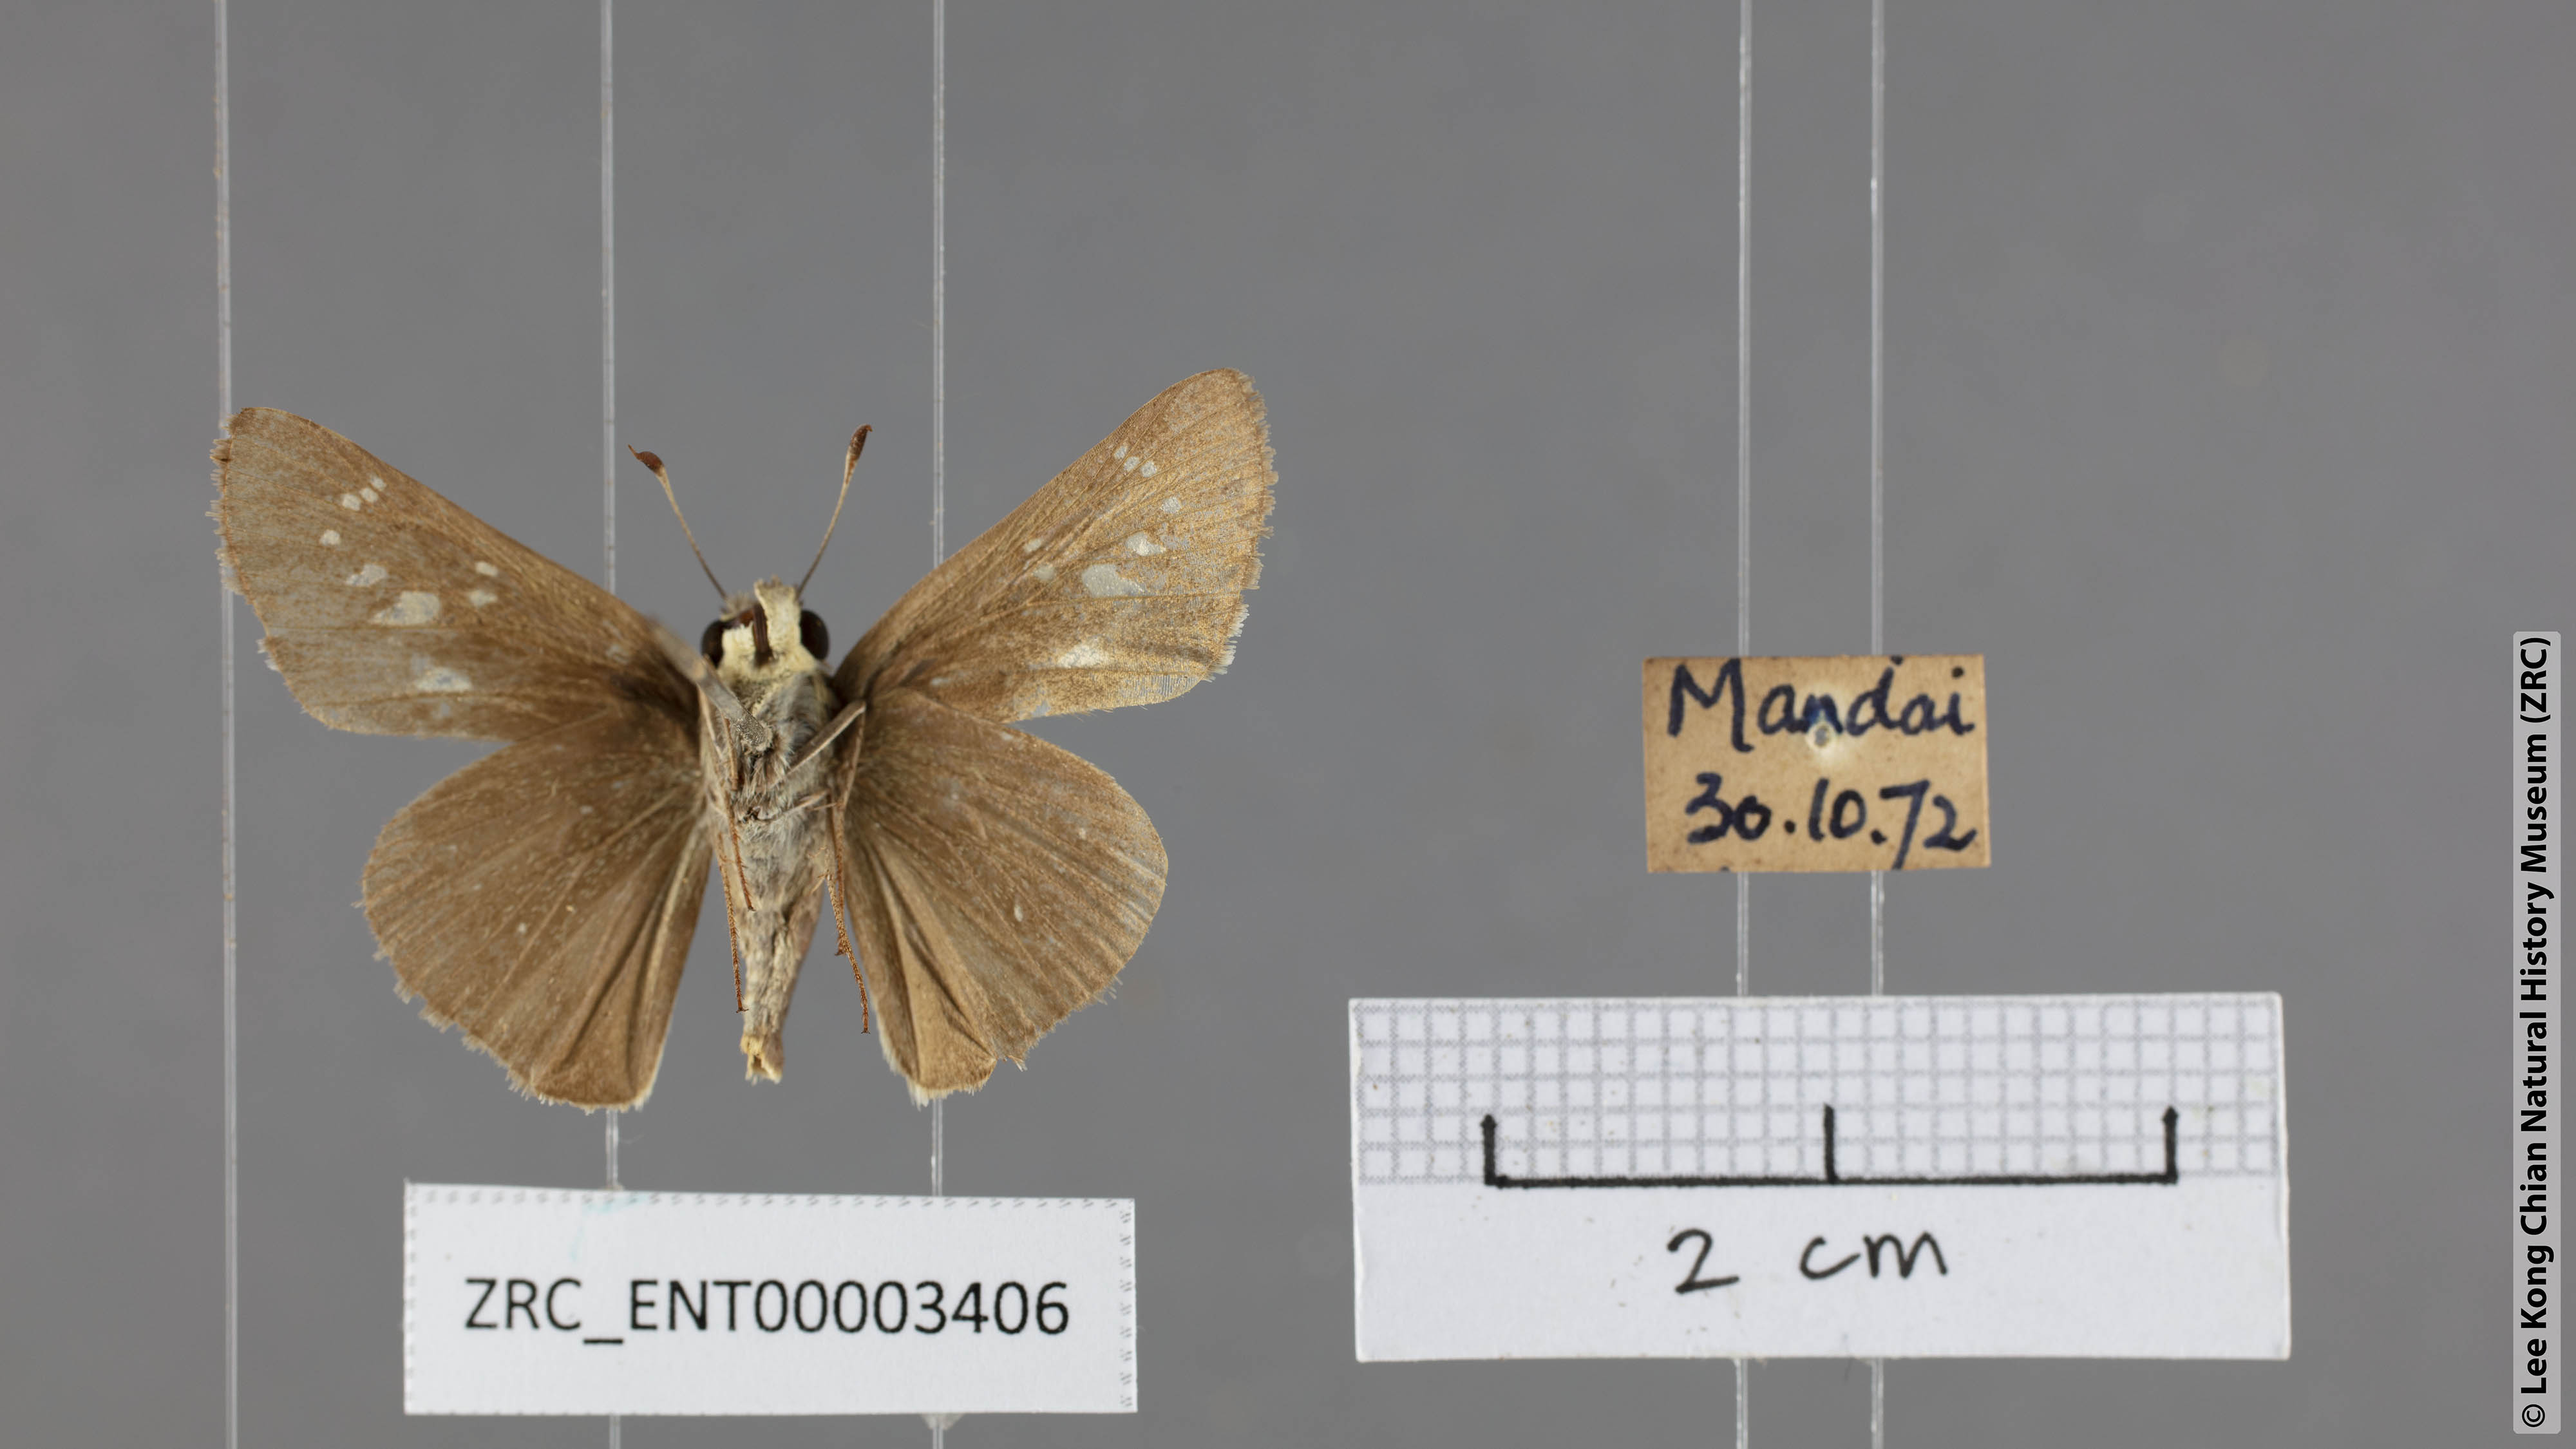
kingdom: Animalia
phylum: Arthropoda
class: Insecta
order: Lepidoptera
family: Hesperiidae
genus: Pelopidas
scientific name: Pelopidas mathias
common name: Black-branded swift
